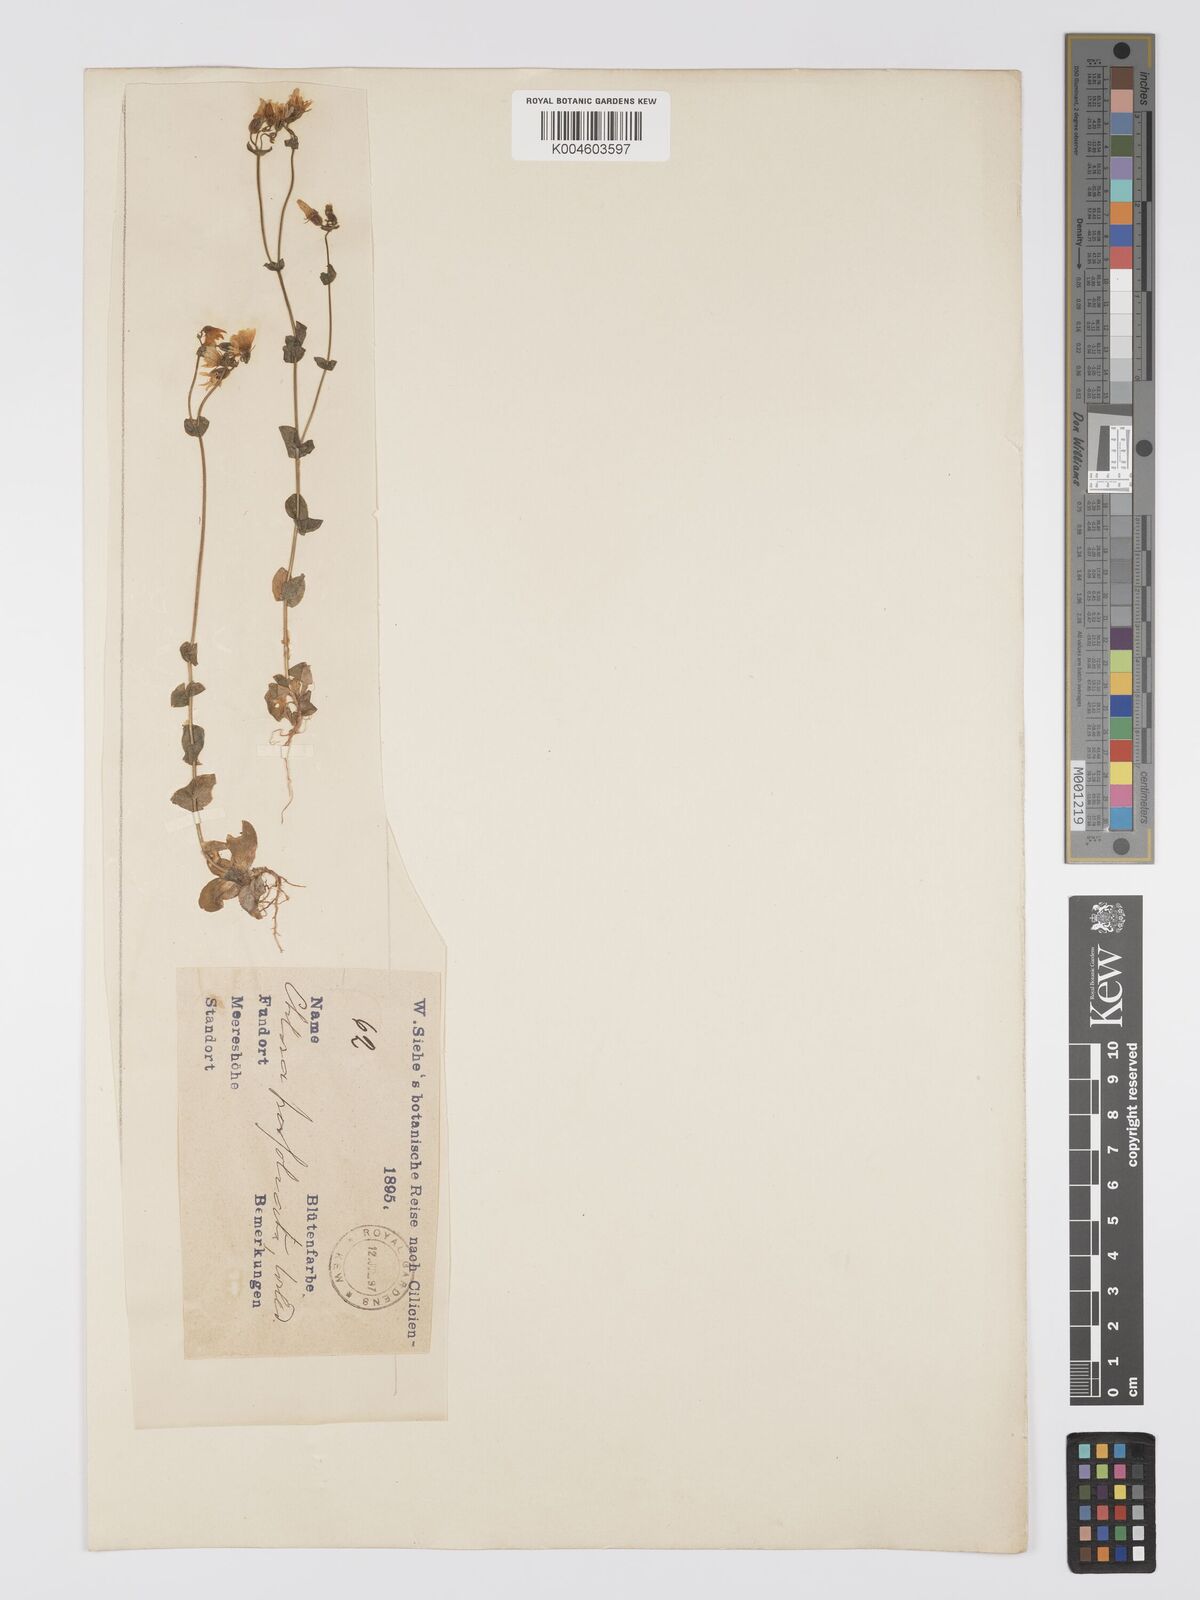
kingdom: Plantae
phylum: Tracheophyta
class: Magnoliopsida
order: Gentianales
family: Gentianaceae
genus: Blackstonia
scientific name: Blackstonia perfoliata
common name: Yellow-wort
